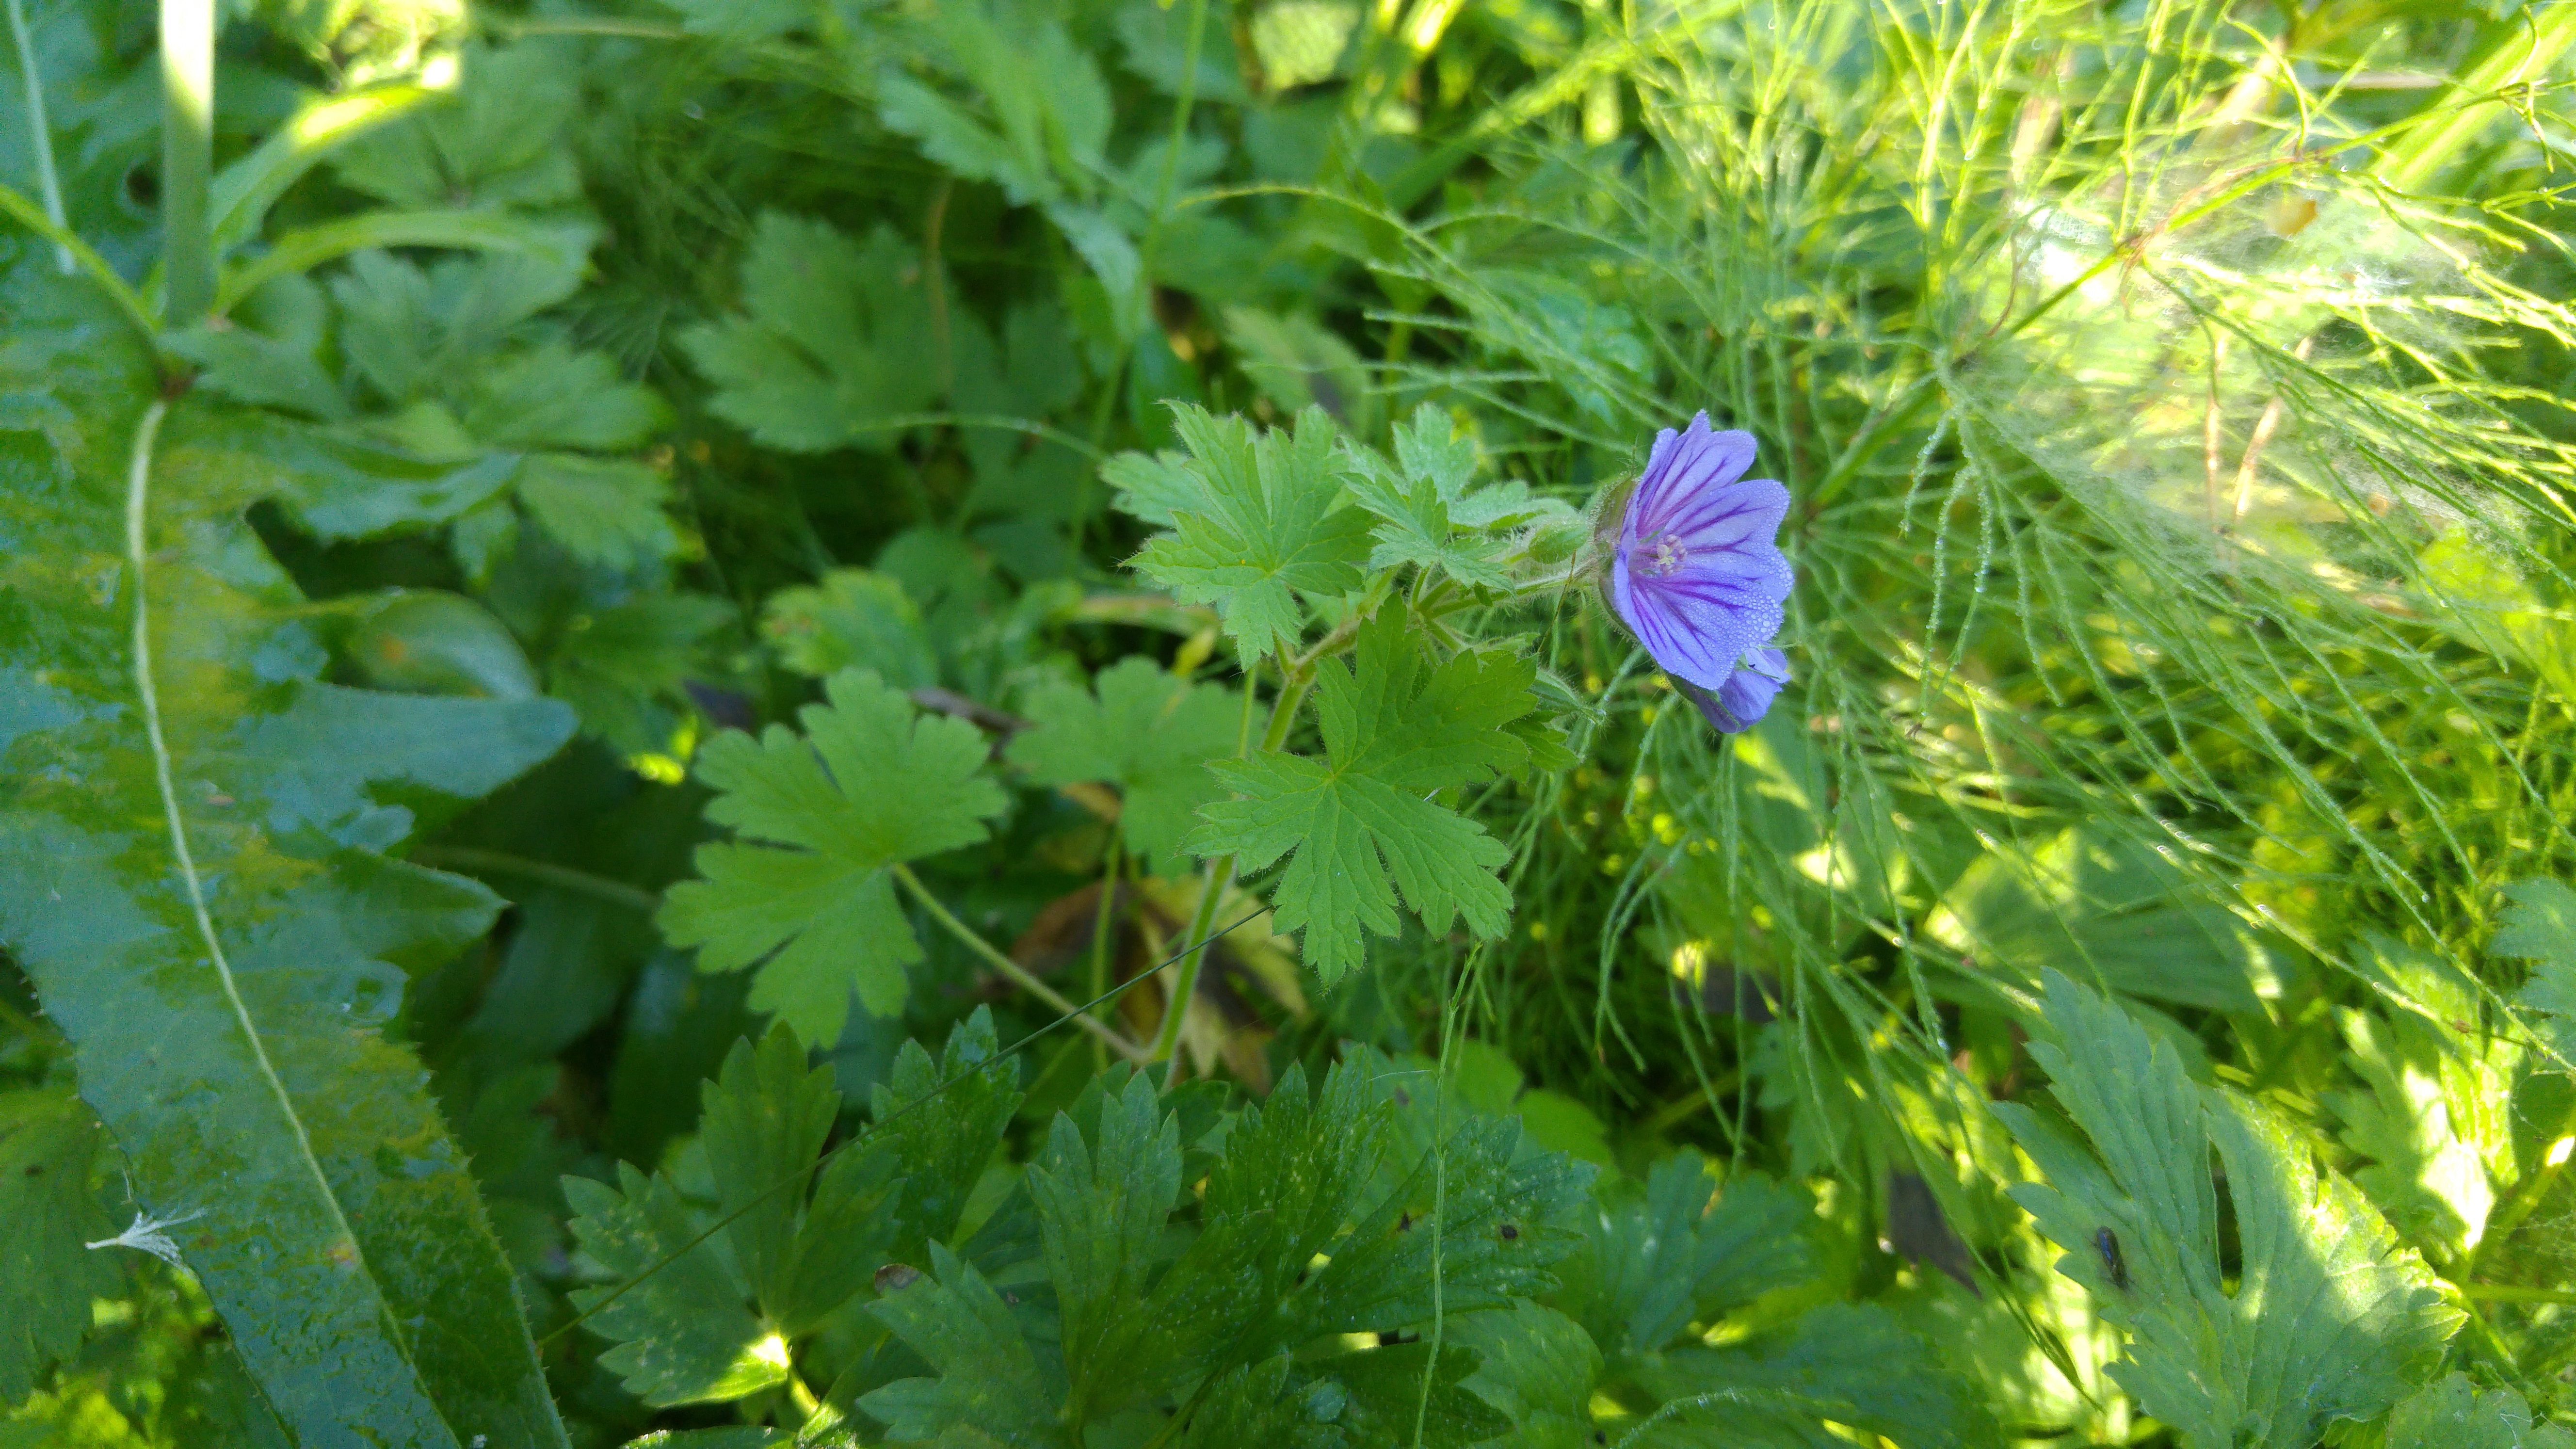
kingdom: Plantae
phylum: Tracheophyta
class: Magnoliopsida
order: Geraniales
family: Geraniaceae
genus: Geranium
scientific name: Geranium bohemicum
